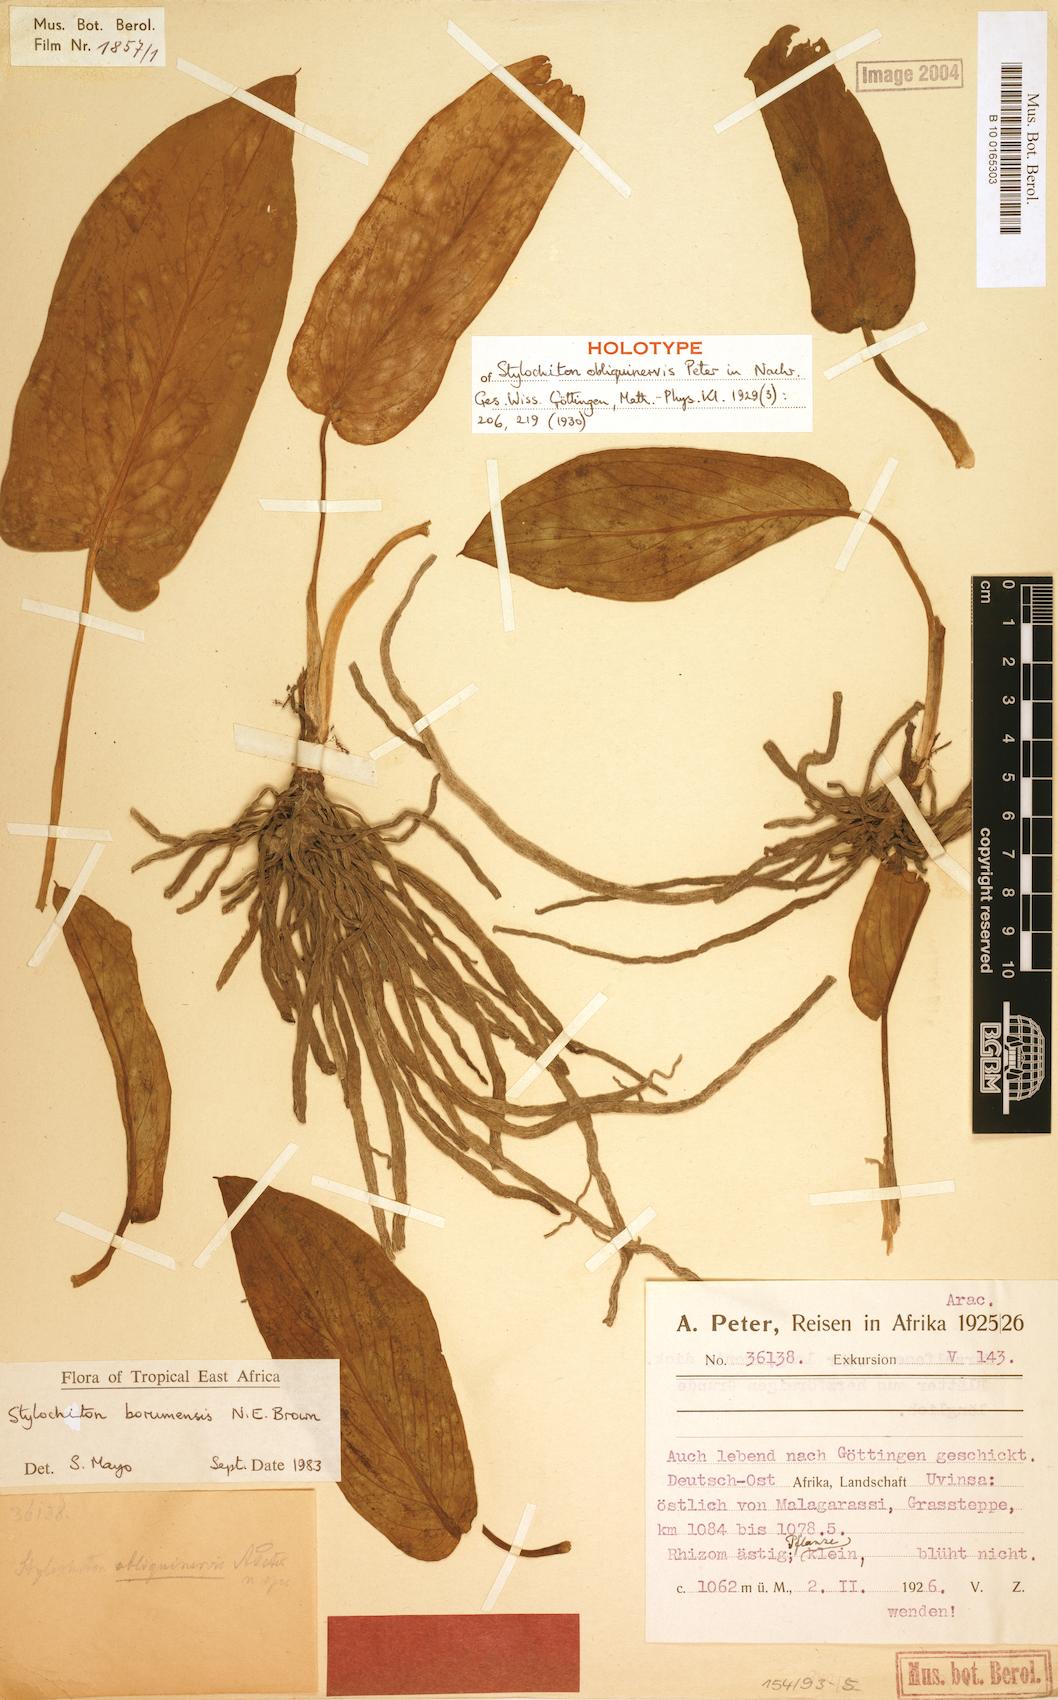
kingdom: Plantae
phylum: Tracheophyta
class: Liliopsida
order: Alismatales
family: Araceae
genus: Stylochiton
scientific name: Stylochiton borumensis
